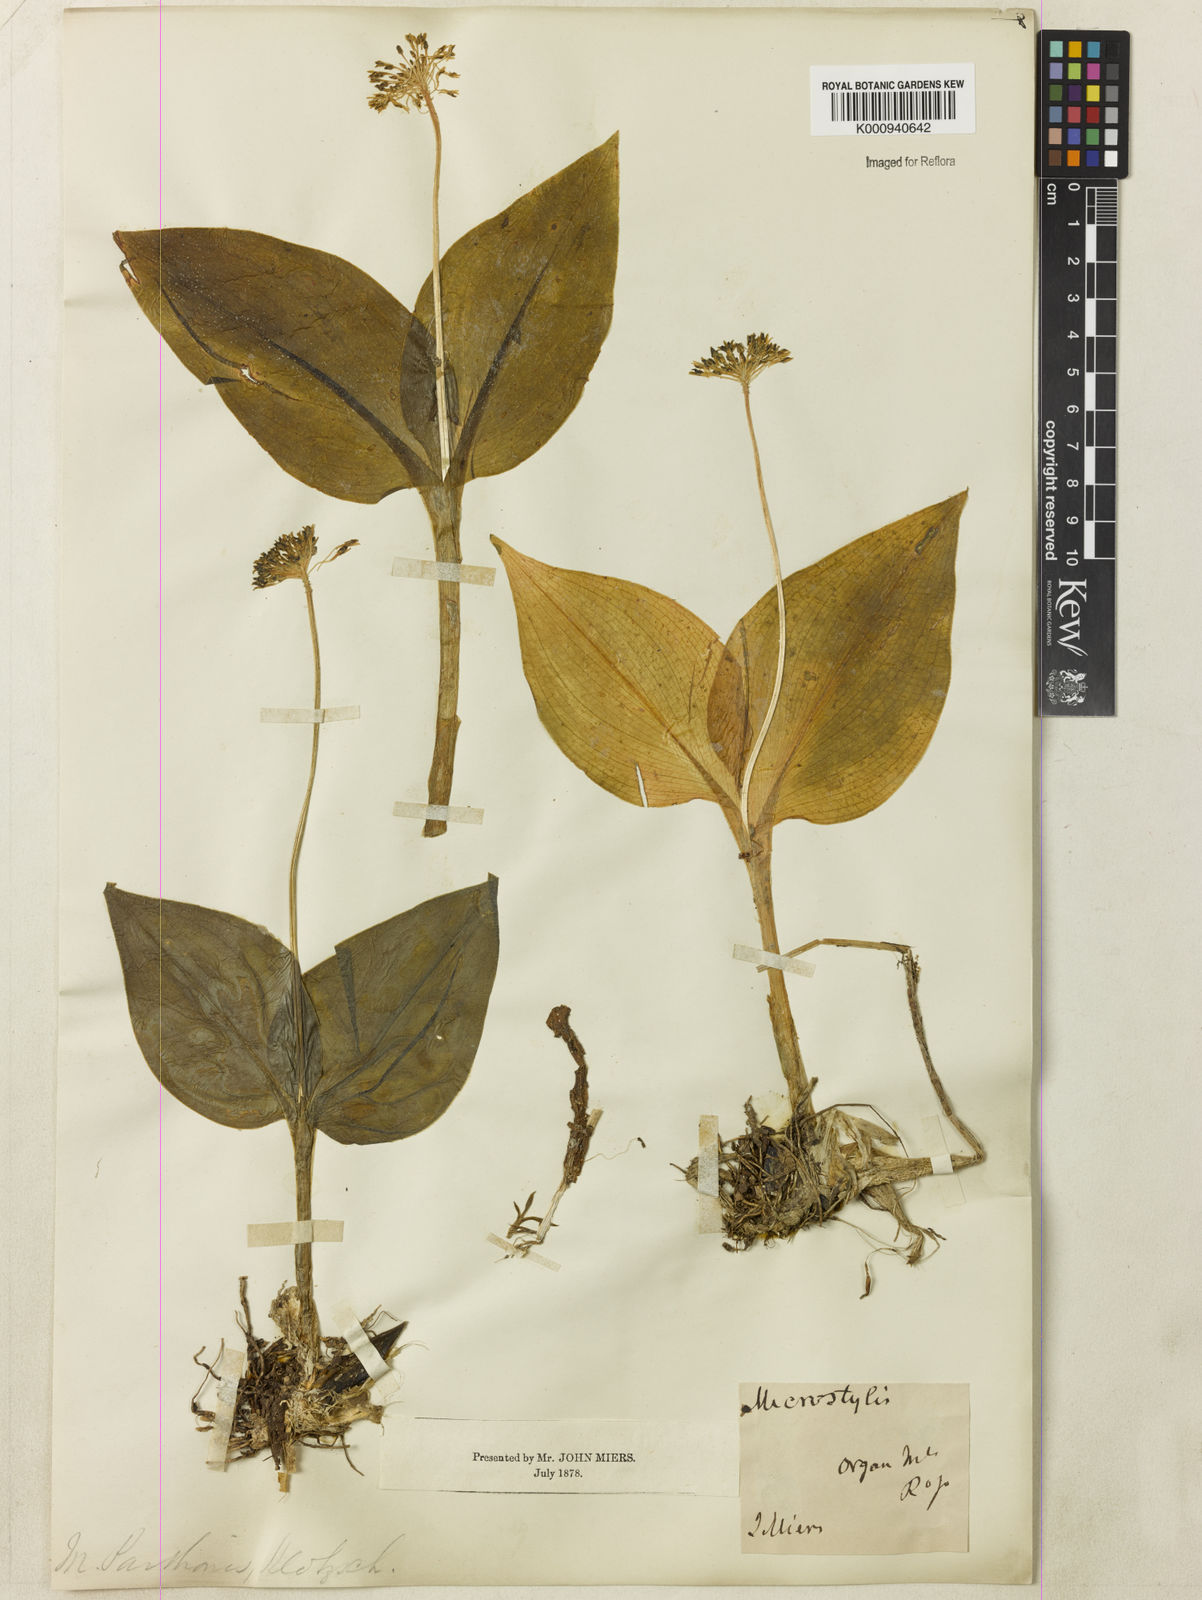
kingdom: Plantae
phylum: Tracheophyta
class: Liliopsida
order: Asparagales
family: Orchidaceae
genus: Malaxis
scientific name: Malaxis parthoni
